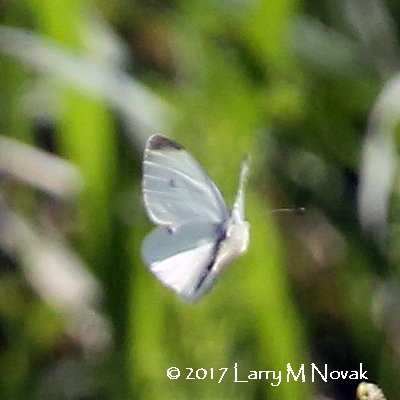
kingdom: Animalia
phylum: Arthropoda
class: Insecta
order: Lepidoptera
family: Pieridae
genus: Pieris
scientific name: Pieris rapae
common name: Cabbage White
